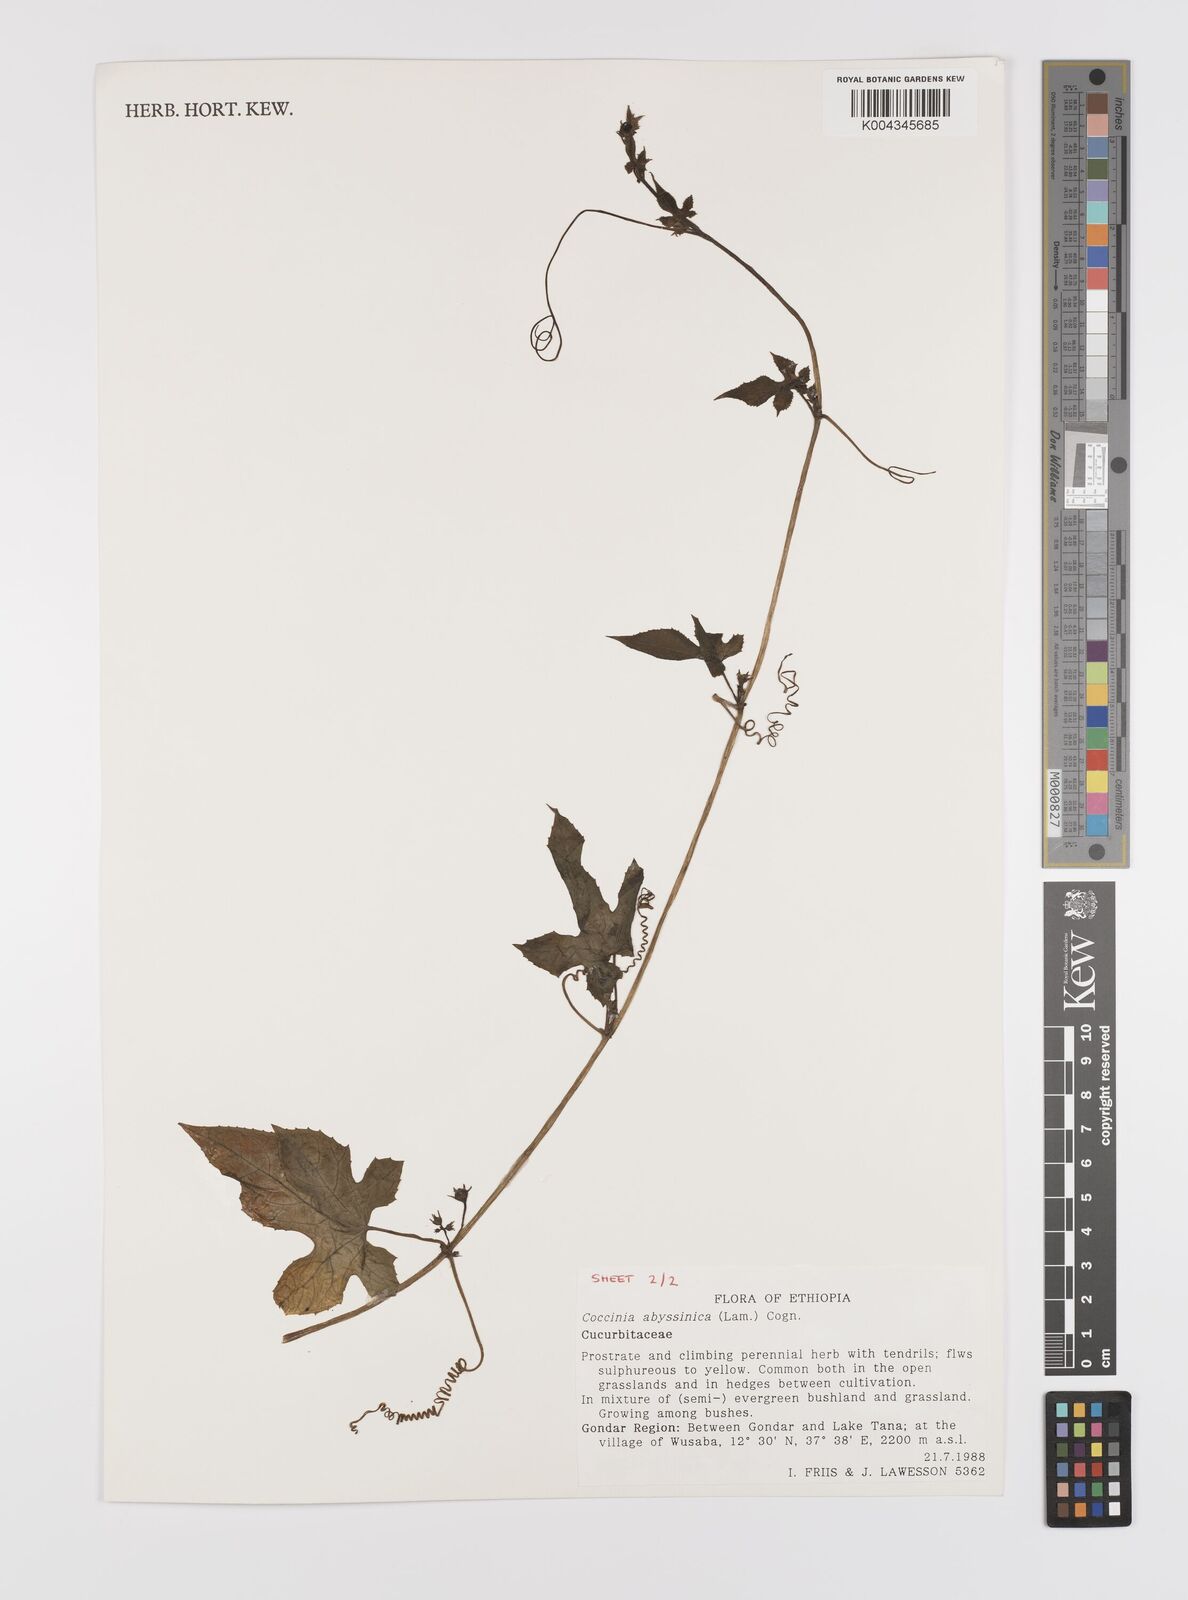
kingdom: Plantae
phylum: Tracheophyta
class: Magnoliopsida
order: Cucurbitales
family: Cucurbitaceae
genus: Coccinia
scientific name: Coccinia abyssinica
